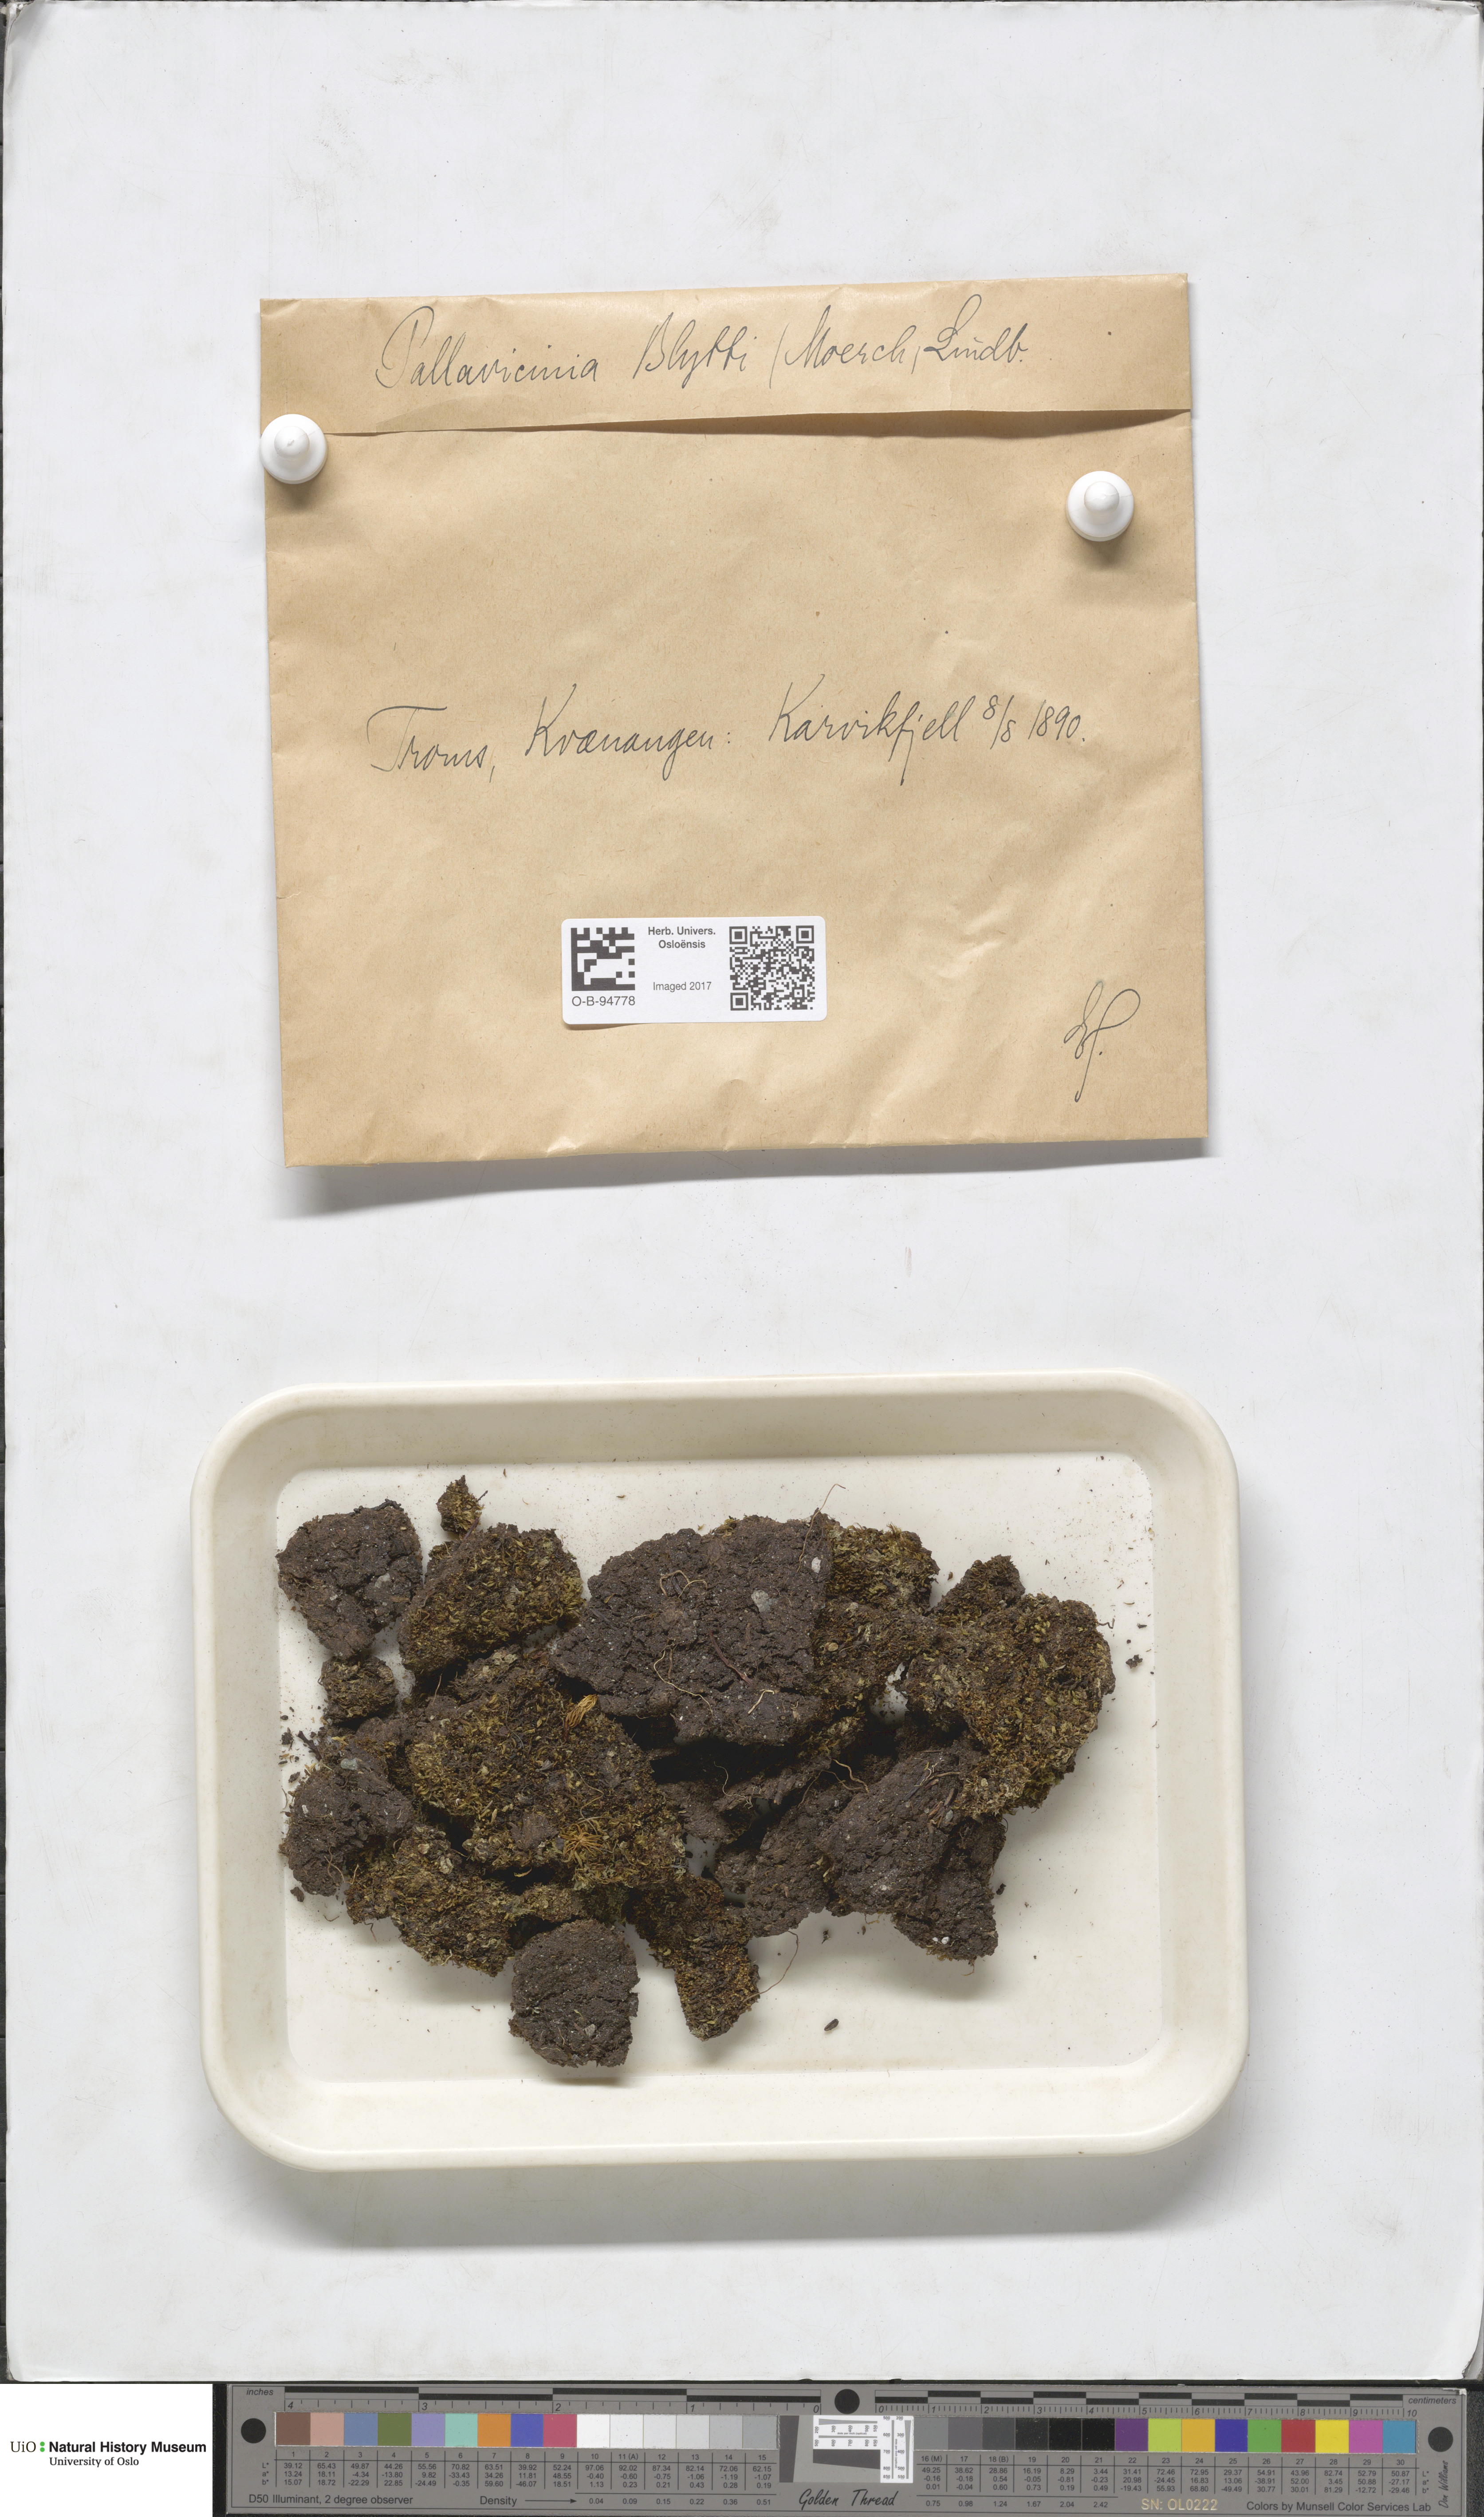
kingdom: Plantae
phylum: Marchantiophyta
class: Jungermanniopsida
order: Pallaviciniales
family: Pseudomoerckiaceae
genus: Pseudomoerckia
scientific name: Pseudomoerckia blyttii
